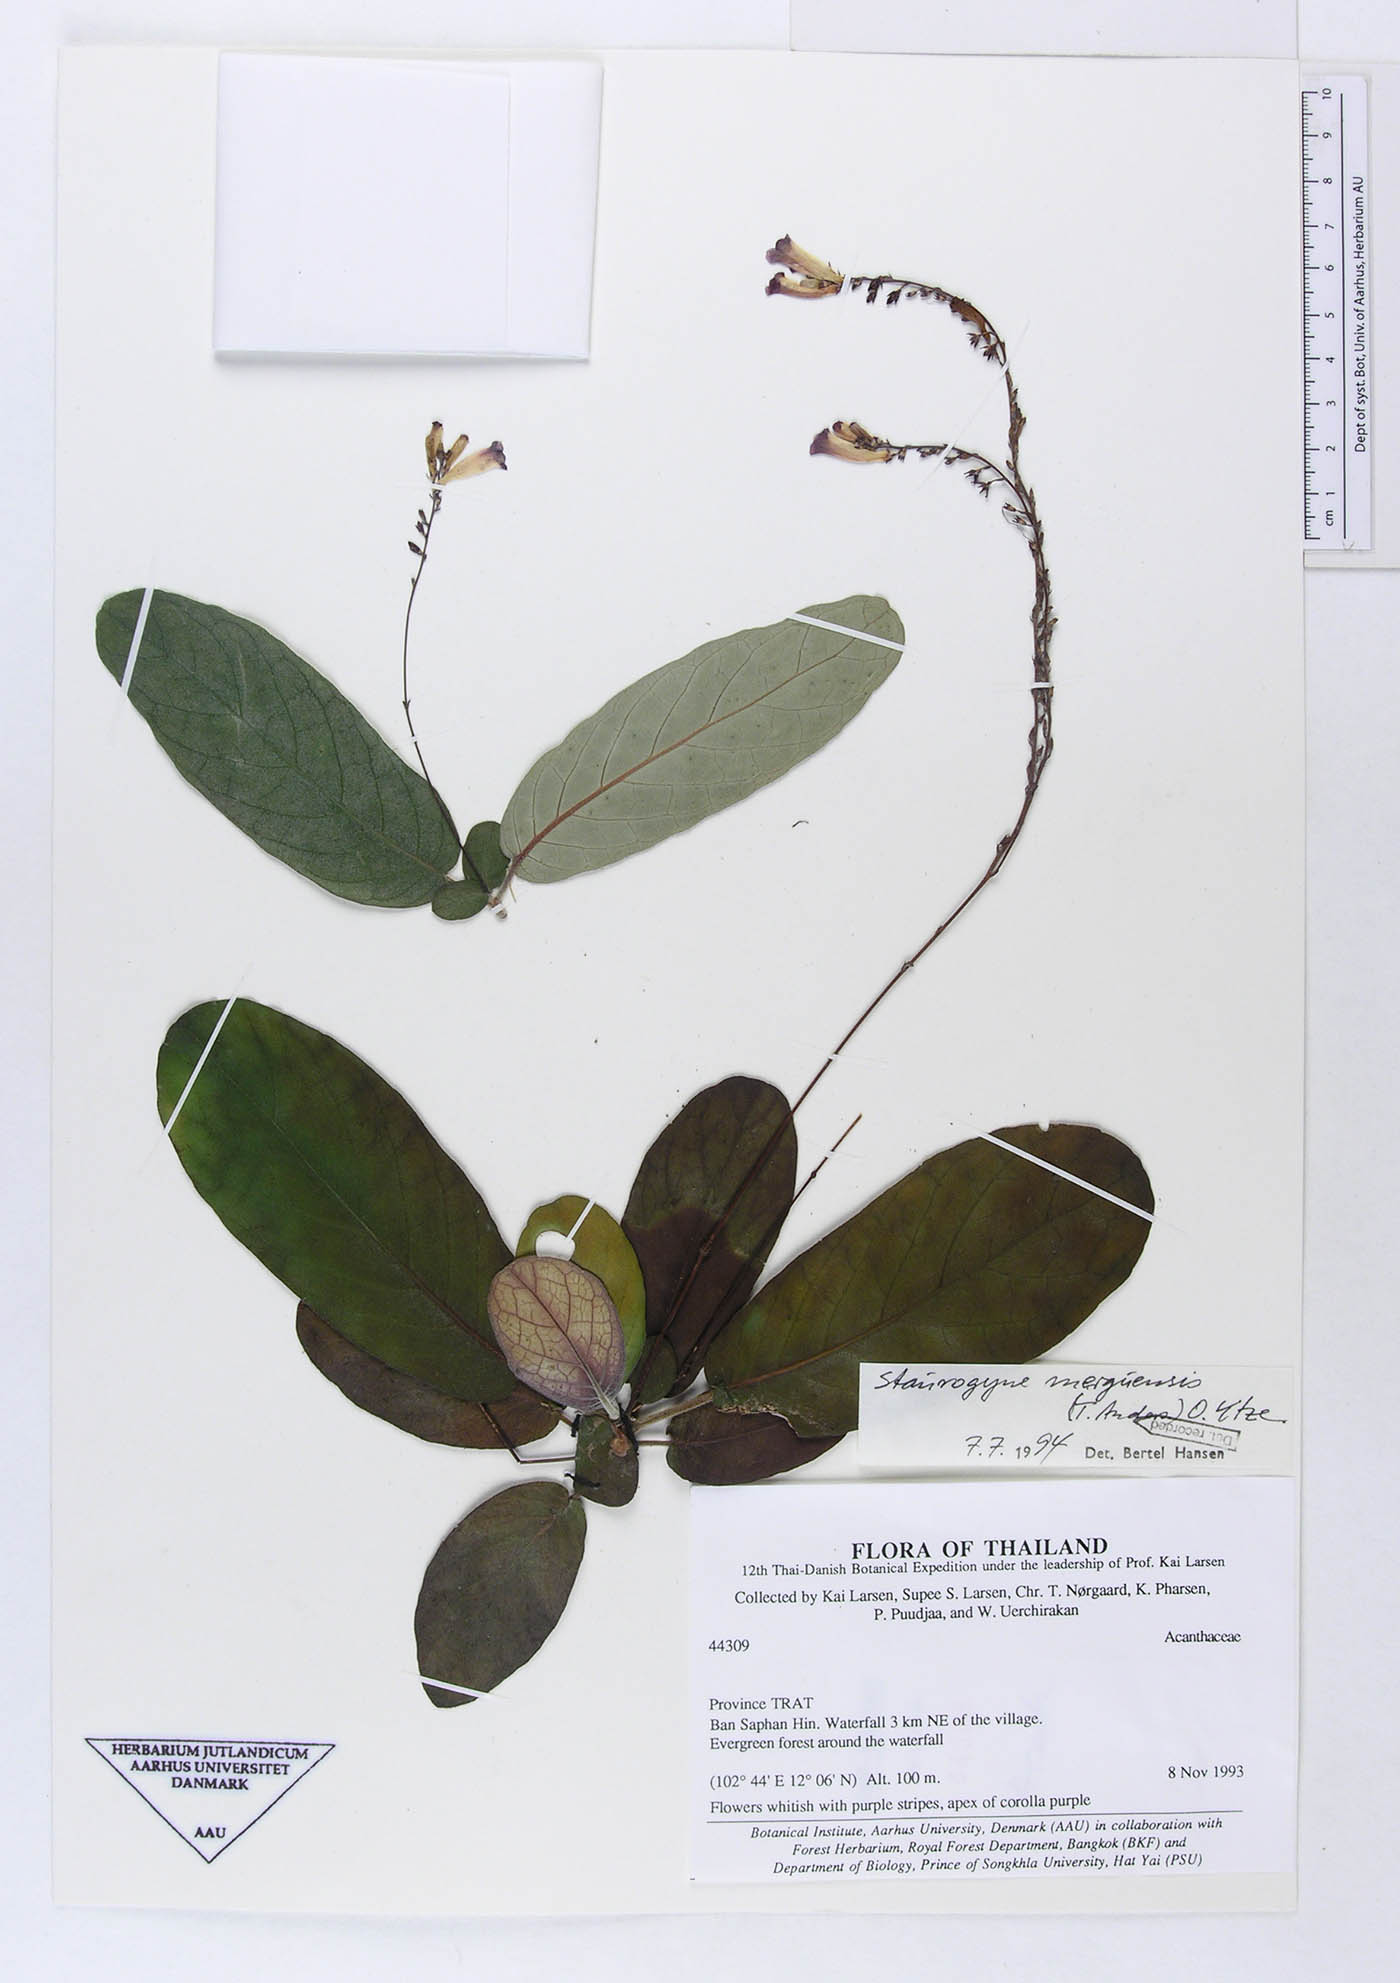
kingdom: Plantae
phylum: Tracheophyta
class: Magnoliopsida
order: Lamiales
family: Acanthaceae
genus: Staurogyne
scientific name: Staurogyne merguensis
